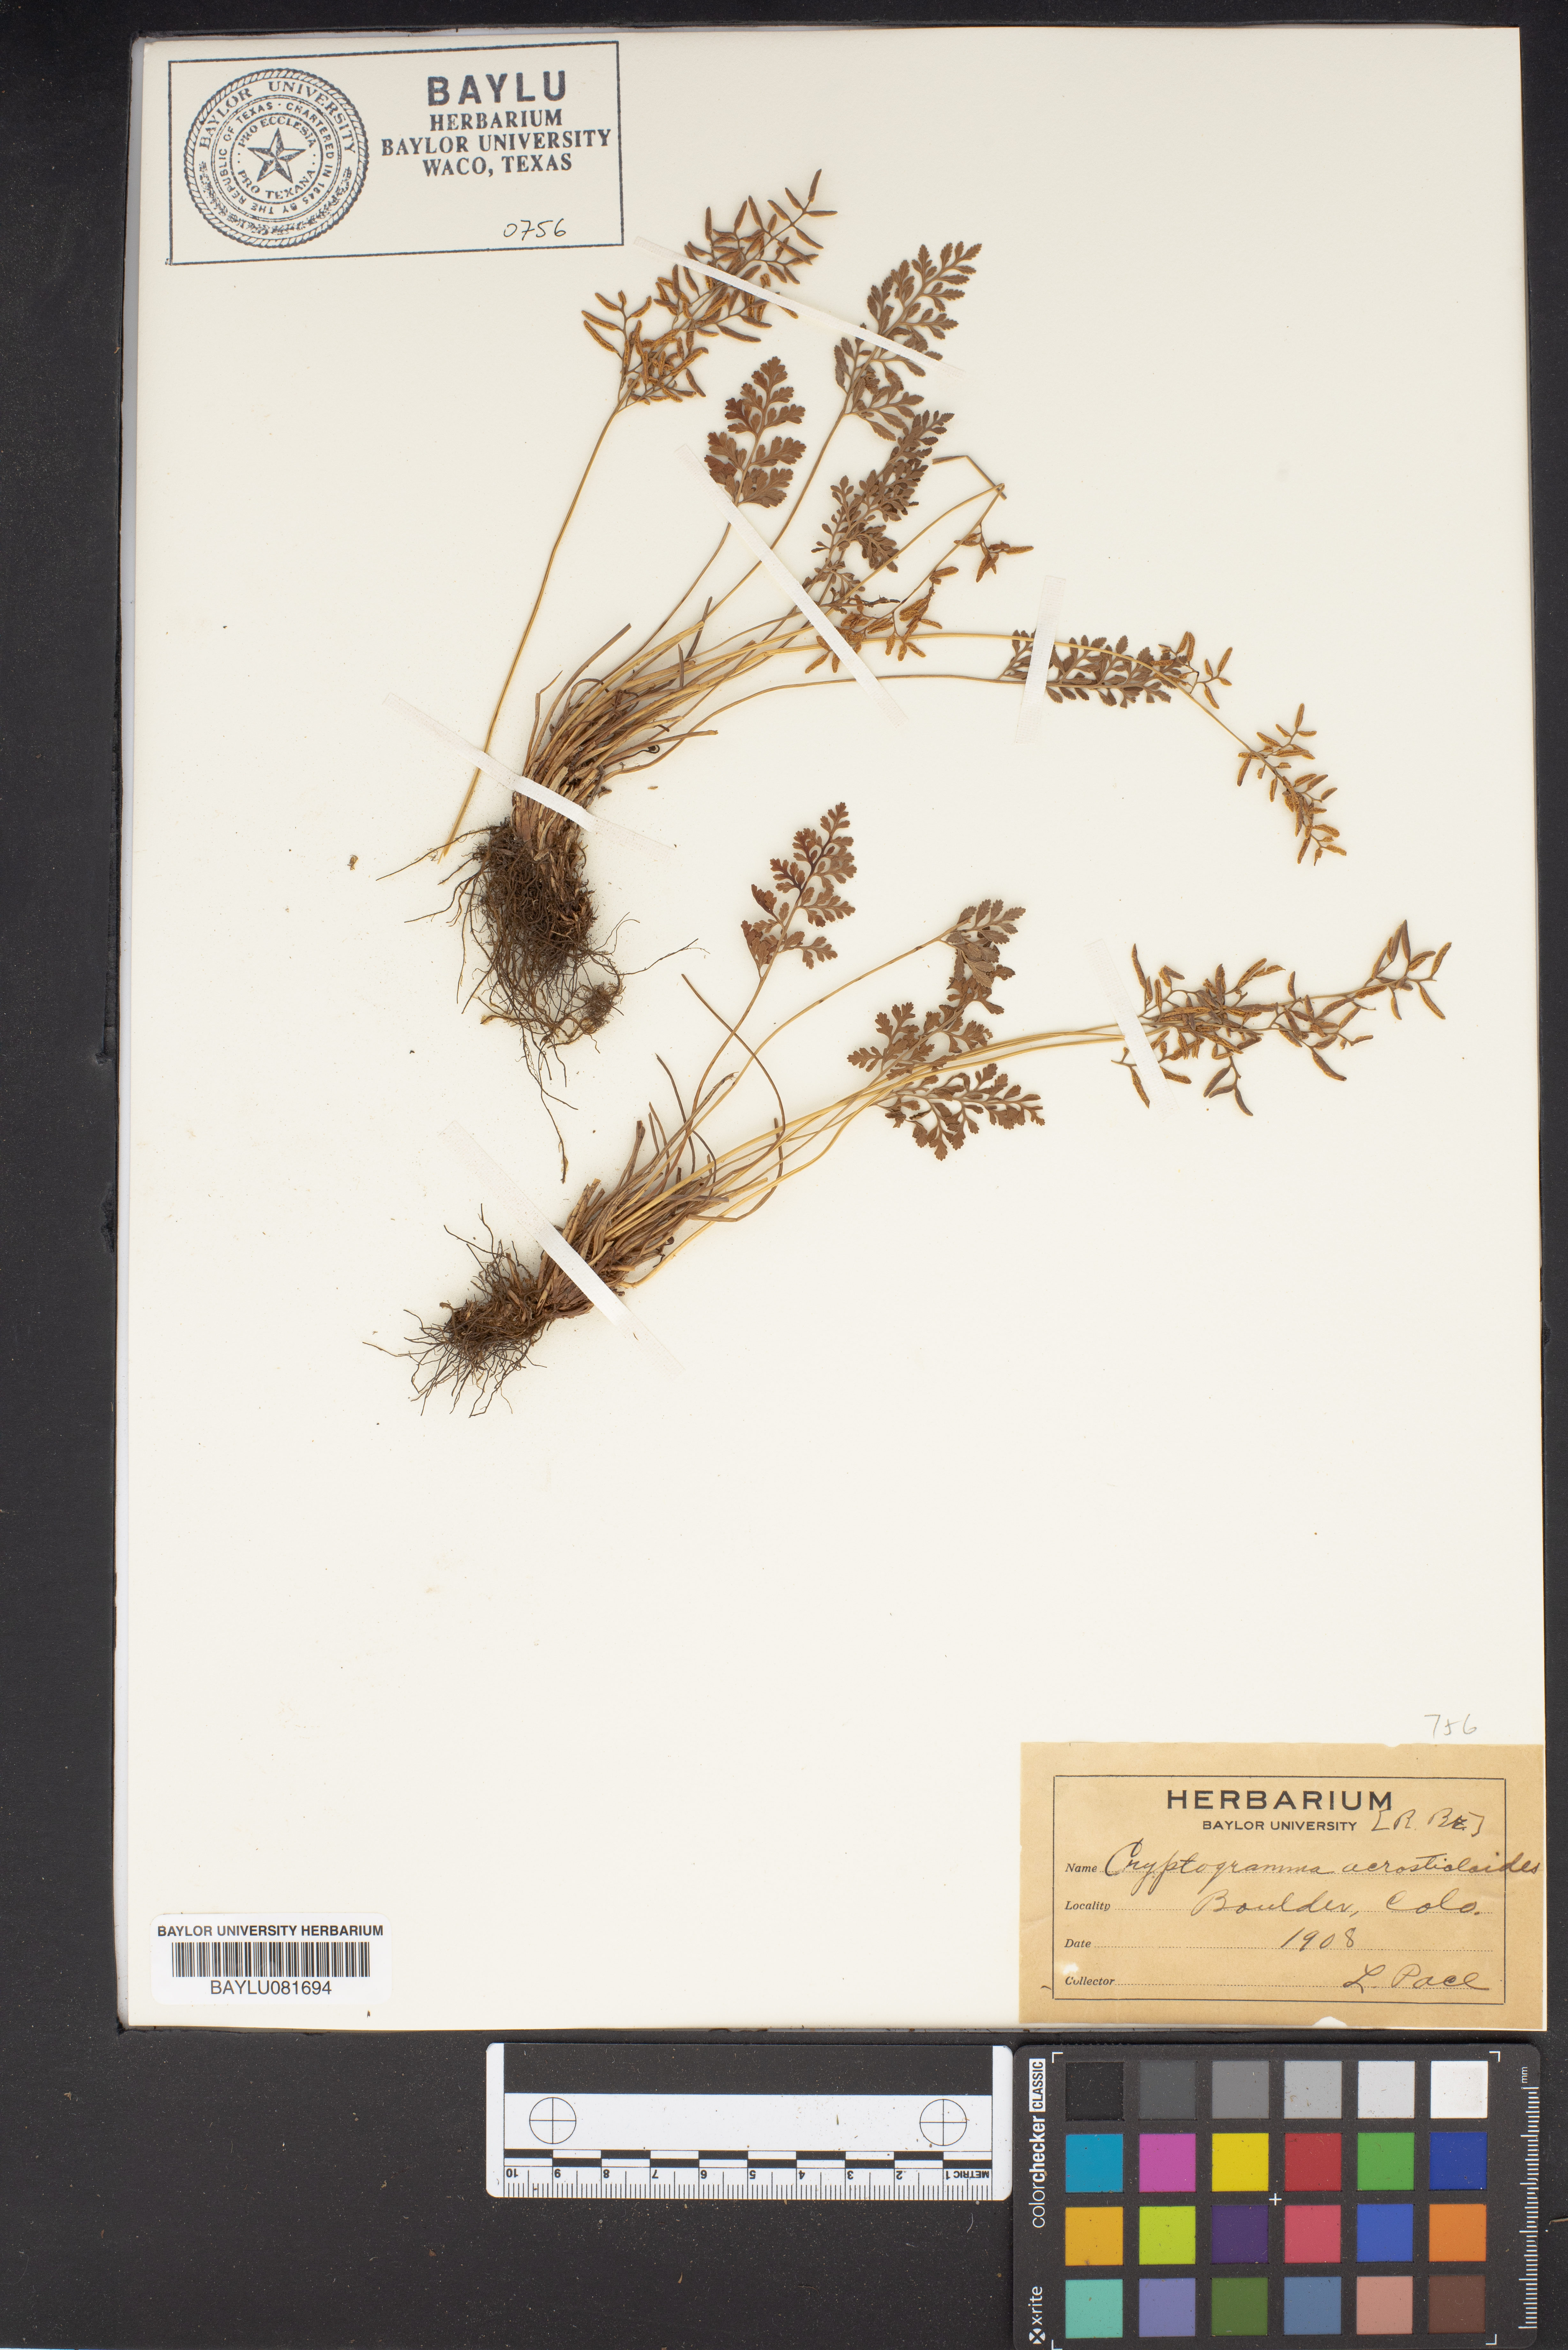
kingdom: Plantae
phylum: Tracheophyta
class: Polypodiopsida
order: Polypodiales
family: Pteridaceae
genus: Cryptogramma
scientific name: Cryptogramma acrostichoides
